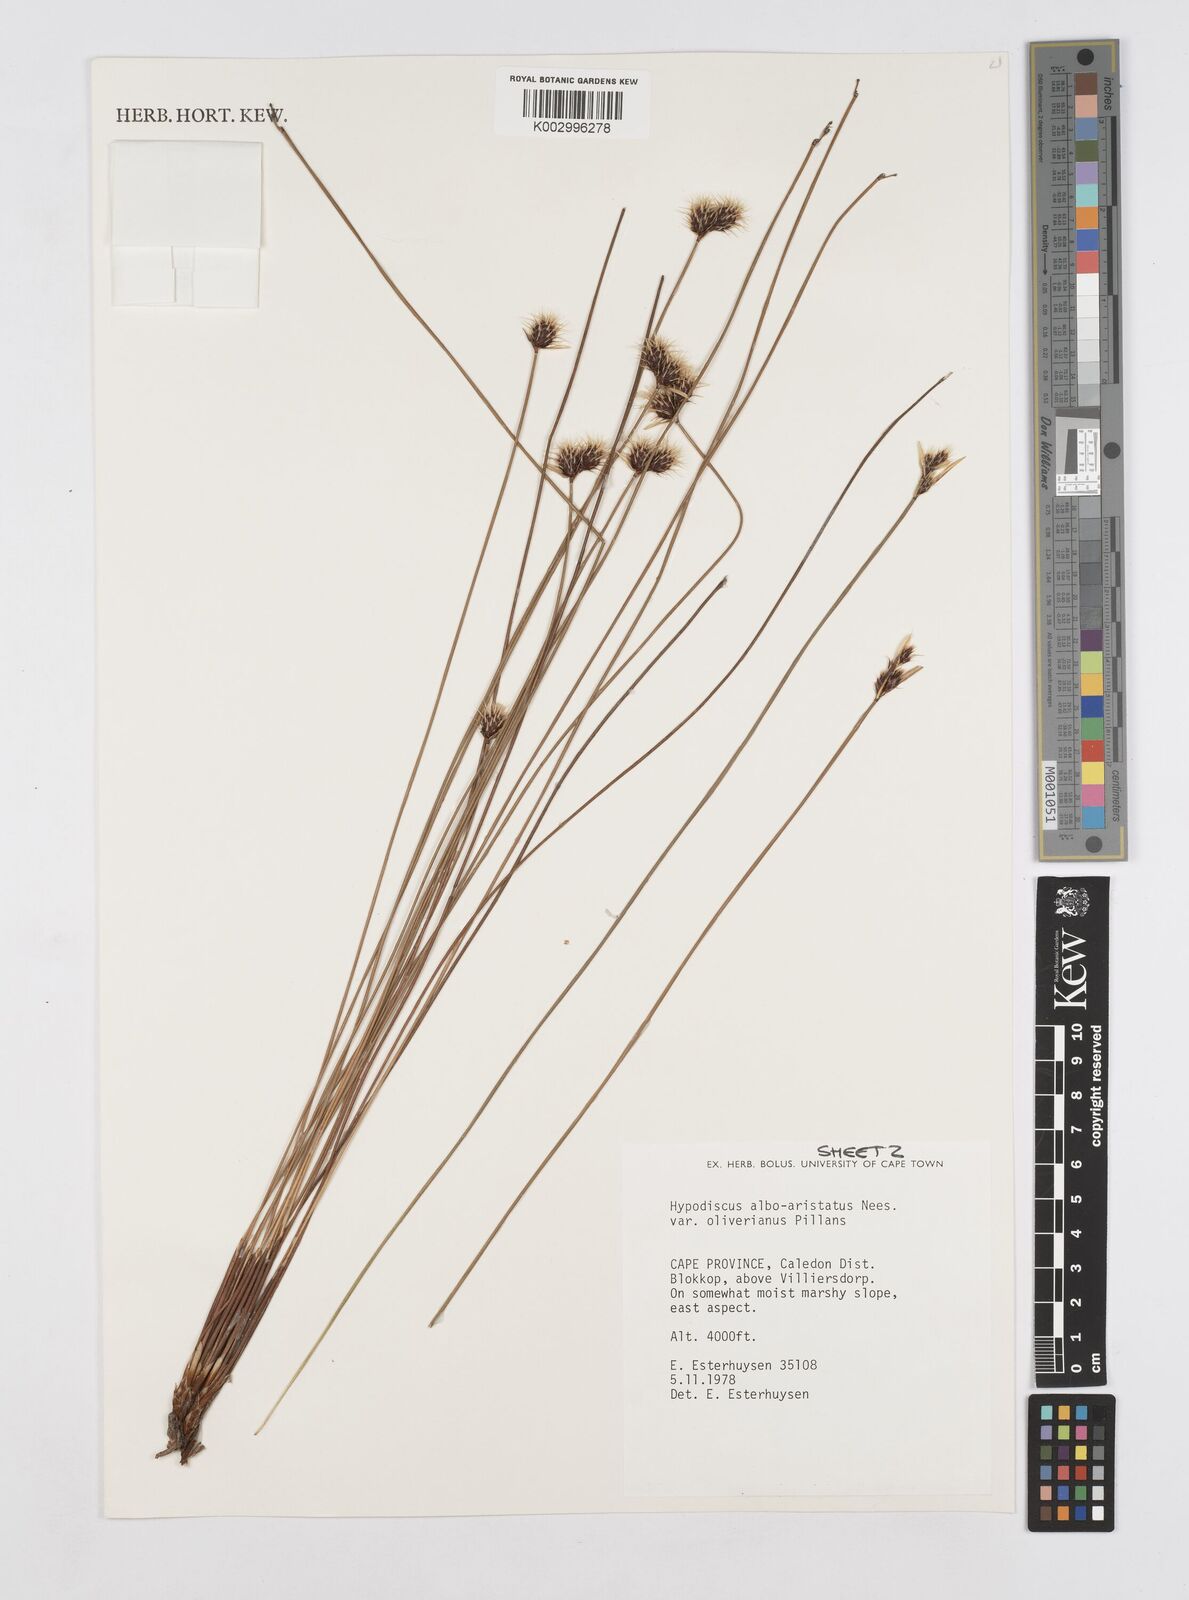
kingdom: Plantae
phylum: Tracheophyta
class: Liliopsida
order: Poales
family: Restionaceae
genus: Hypodiscus
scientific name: Hypodiscus alboaristatus
